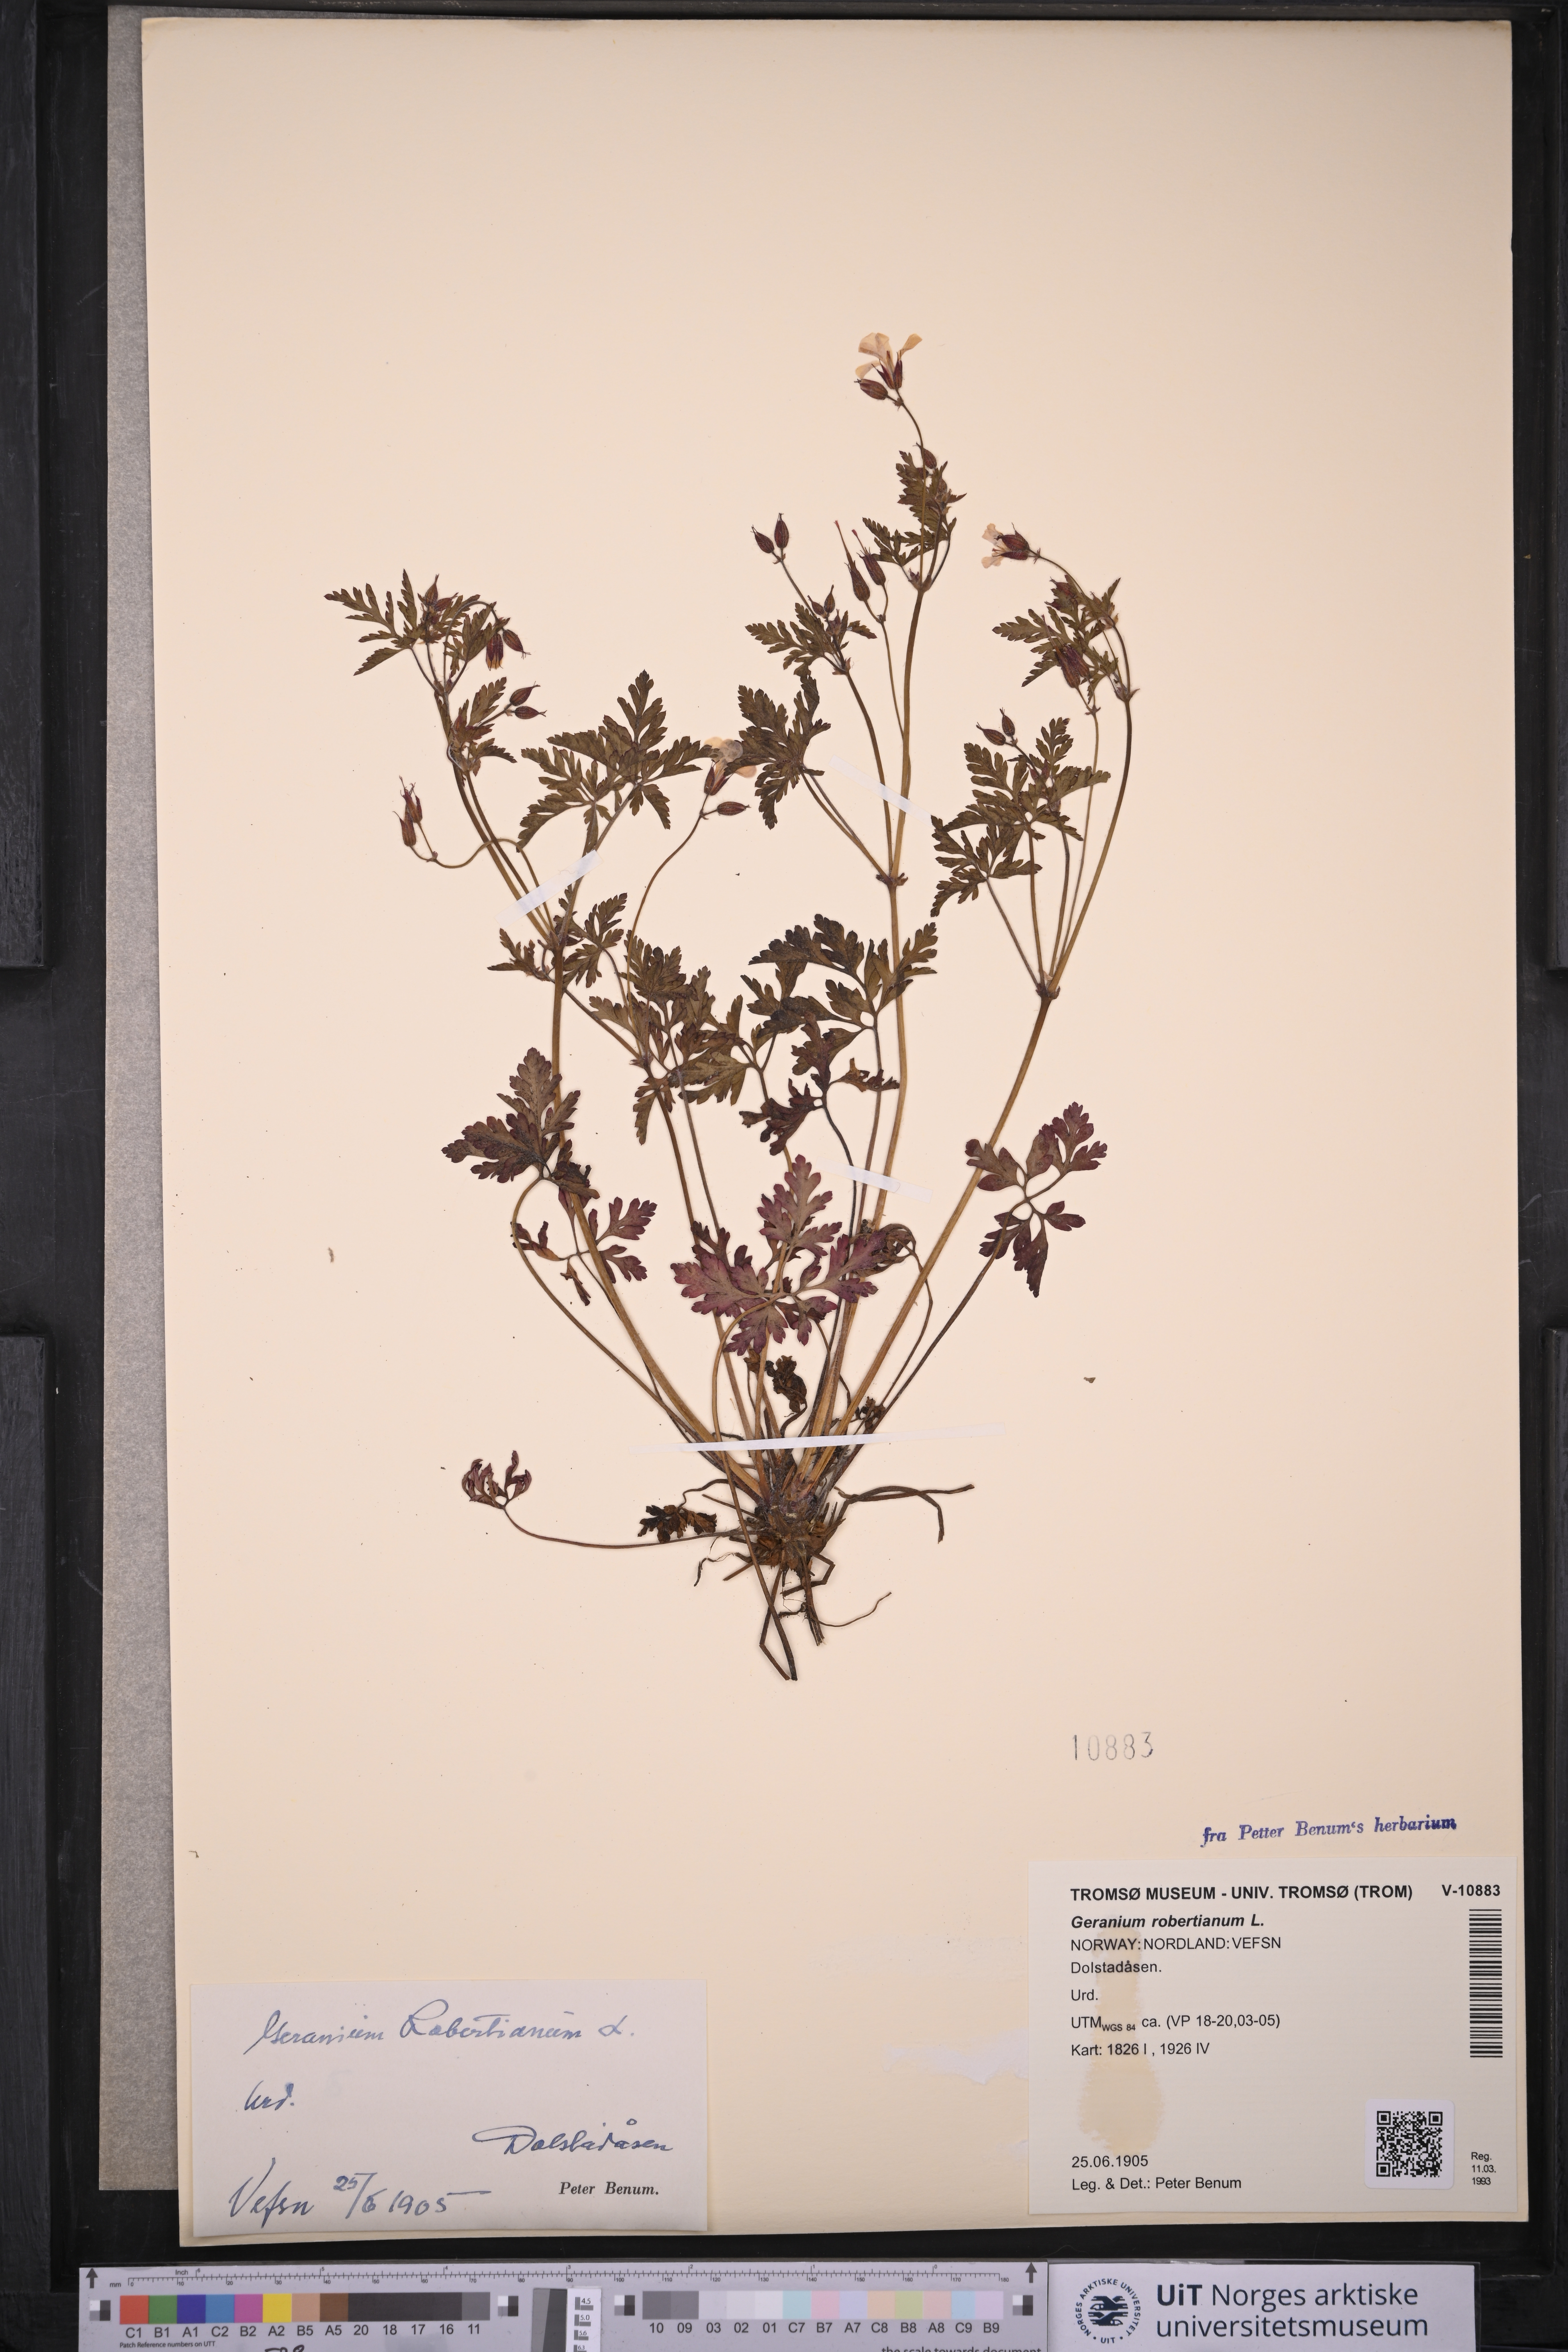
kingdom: Plantae
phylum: Tracheophyta
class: Magnoliopsida
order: Geraniales
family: Geraniaceae
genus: Geranium
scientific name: Geranium robertianum
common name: Herb-robert
